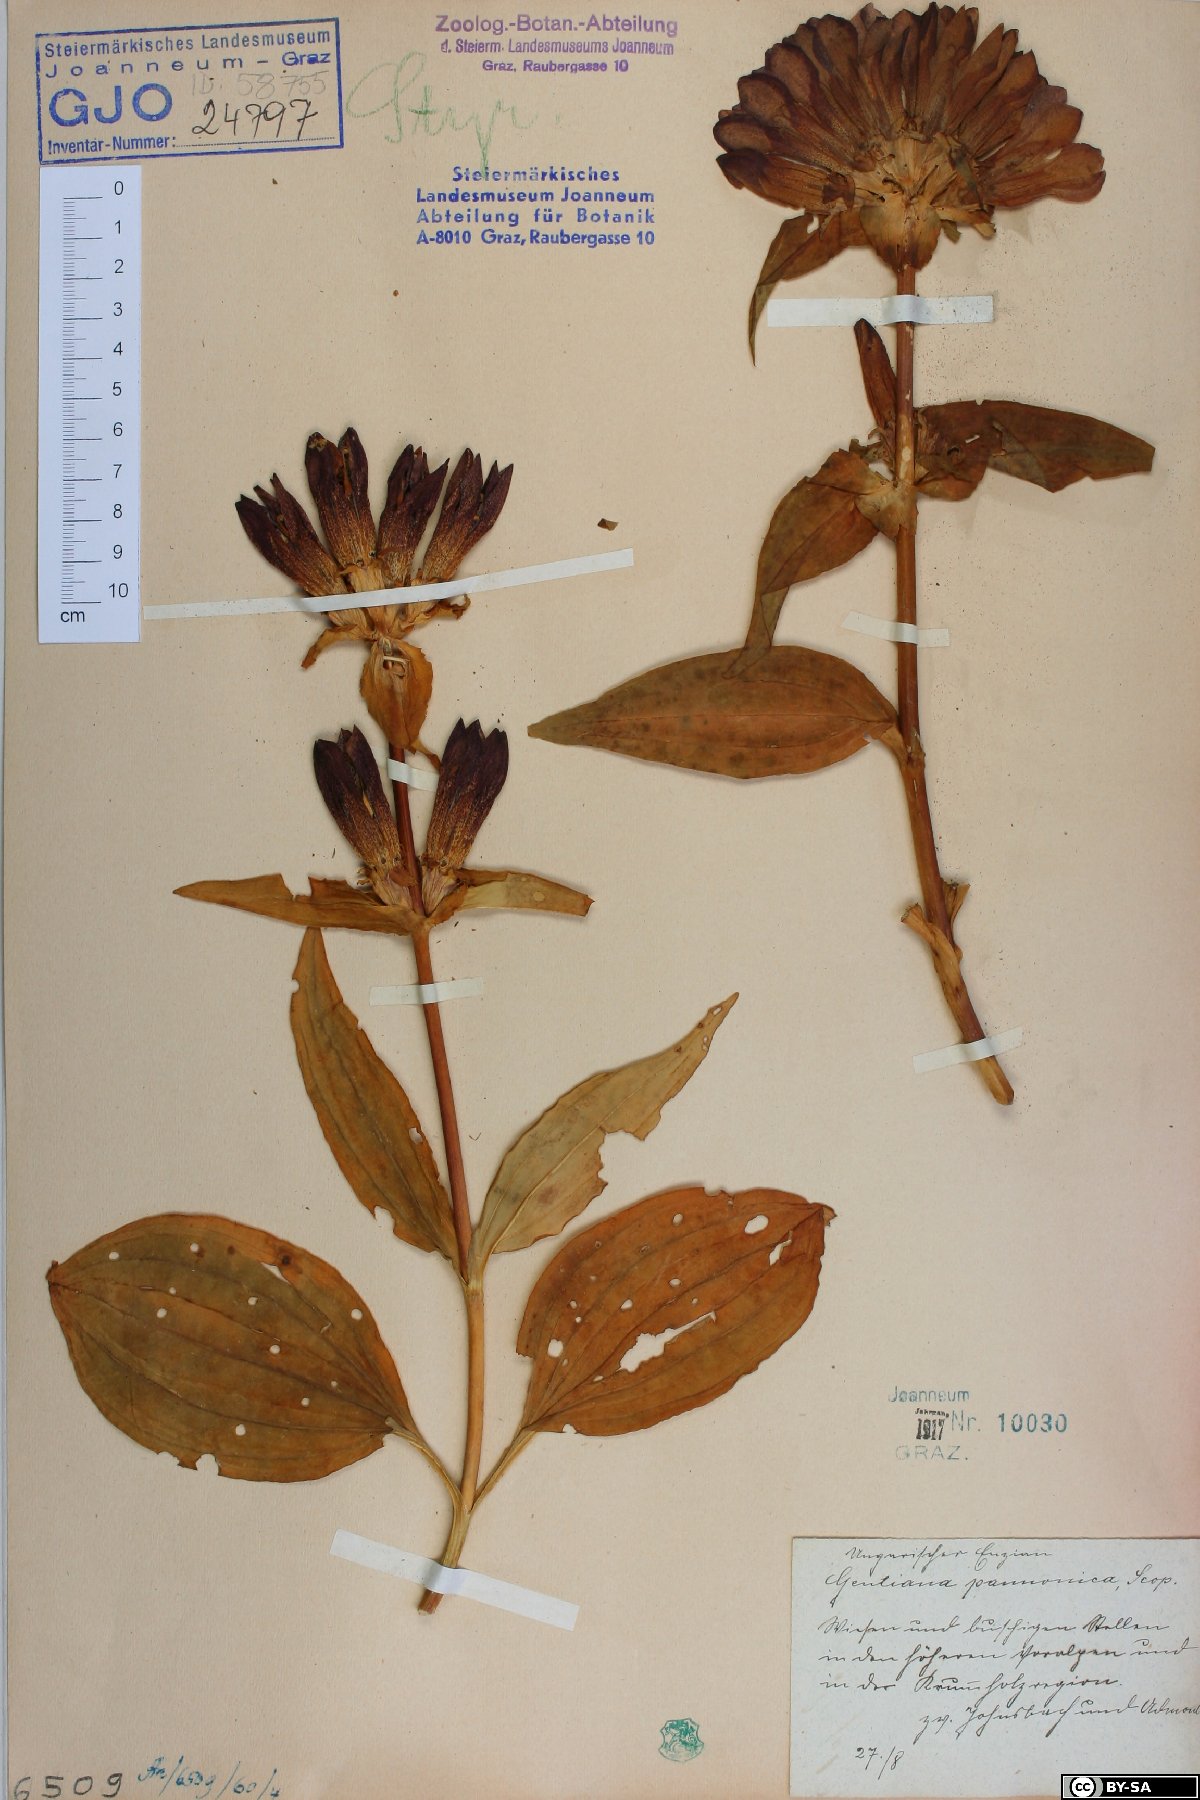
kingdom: Plantae
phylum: Tracheophyta
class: Magnoliopsida
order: Gentianales
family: Gentianaceae
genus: Gentiana
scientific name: Gentiana pannonica
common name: Hungarian gentian
